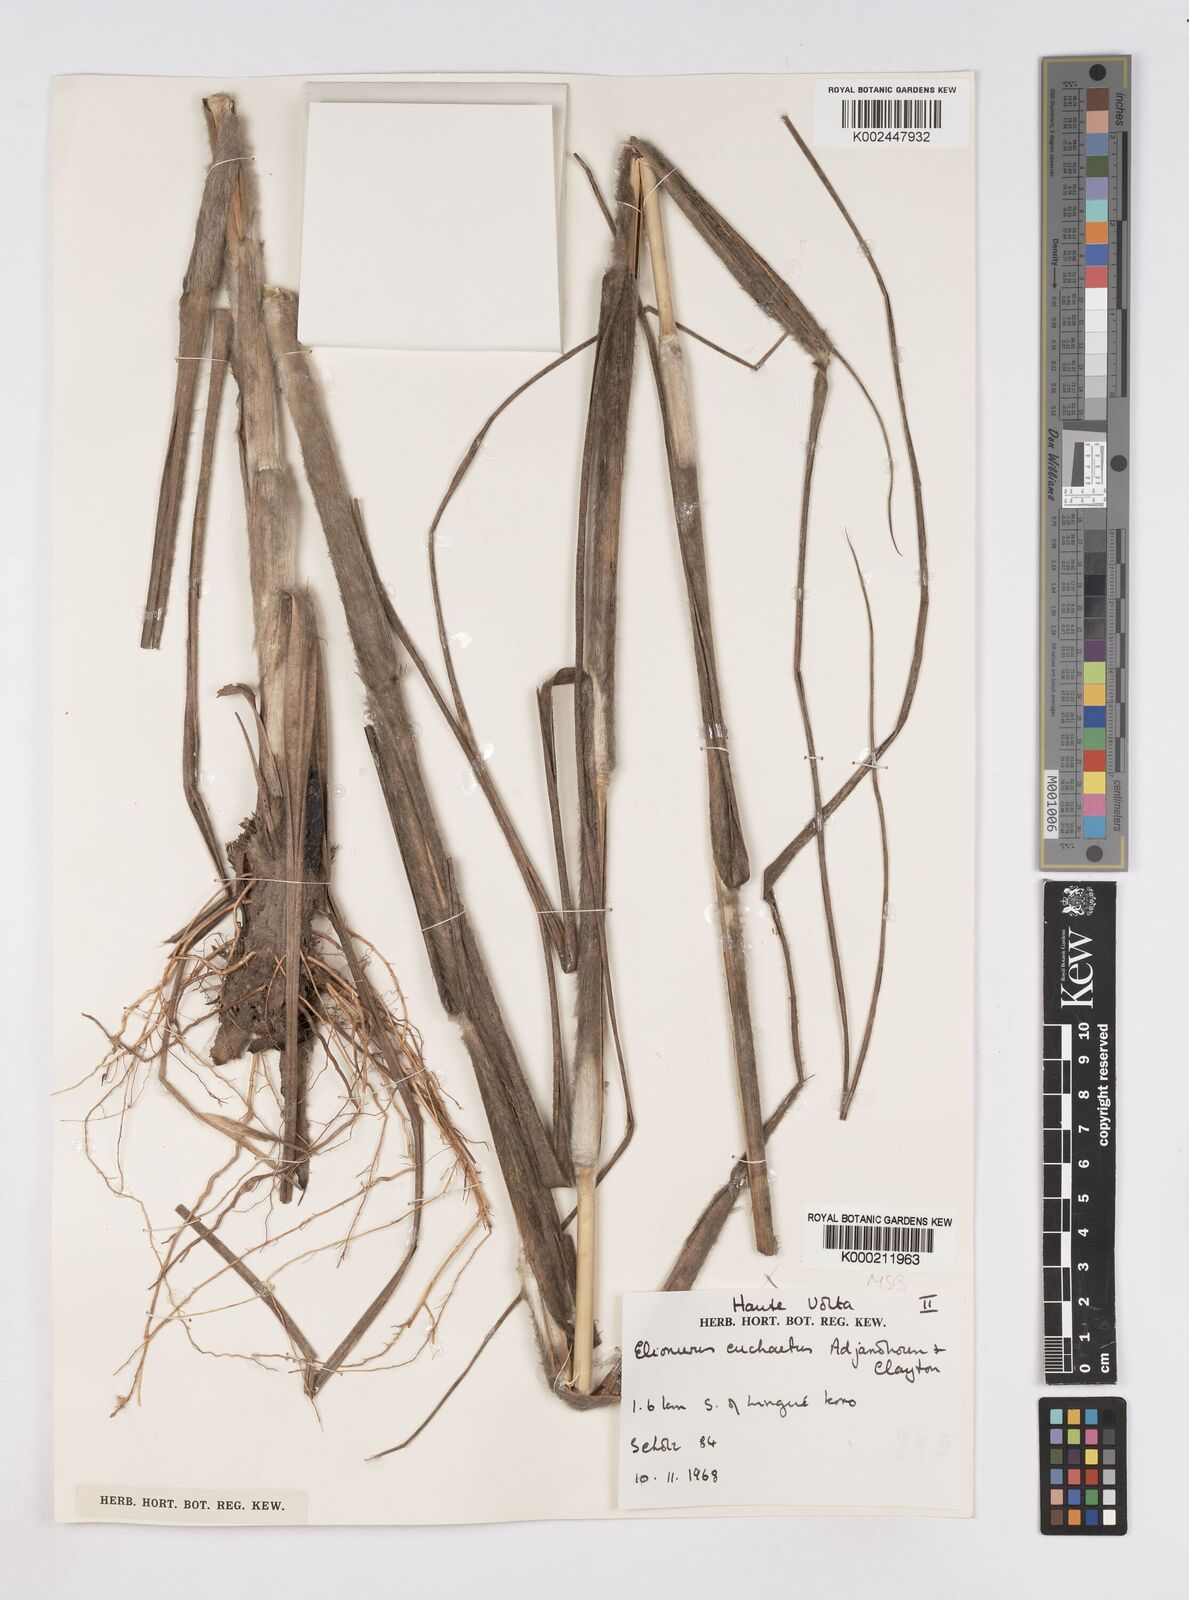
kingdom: Plantae
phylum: Tracheophyta
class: Liliopsida
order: Poales
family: Poaceae
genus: Elionurus
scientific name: Elionurus euchaetus
